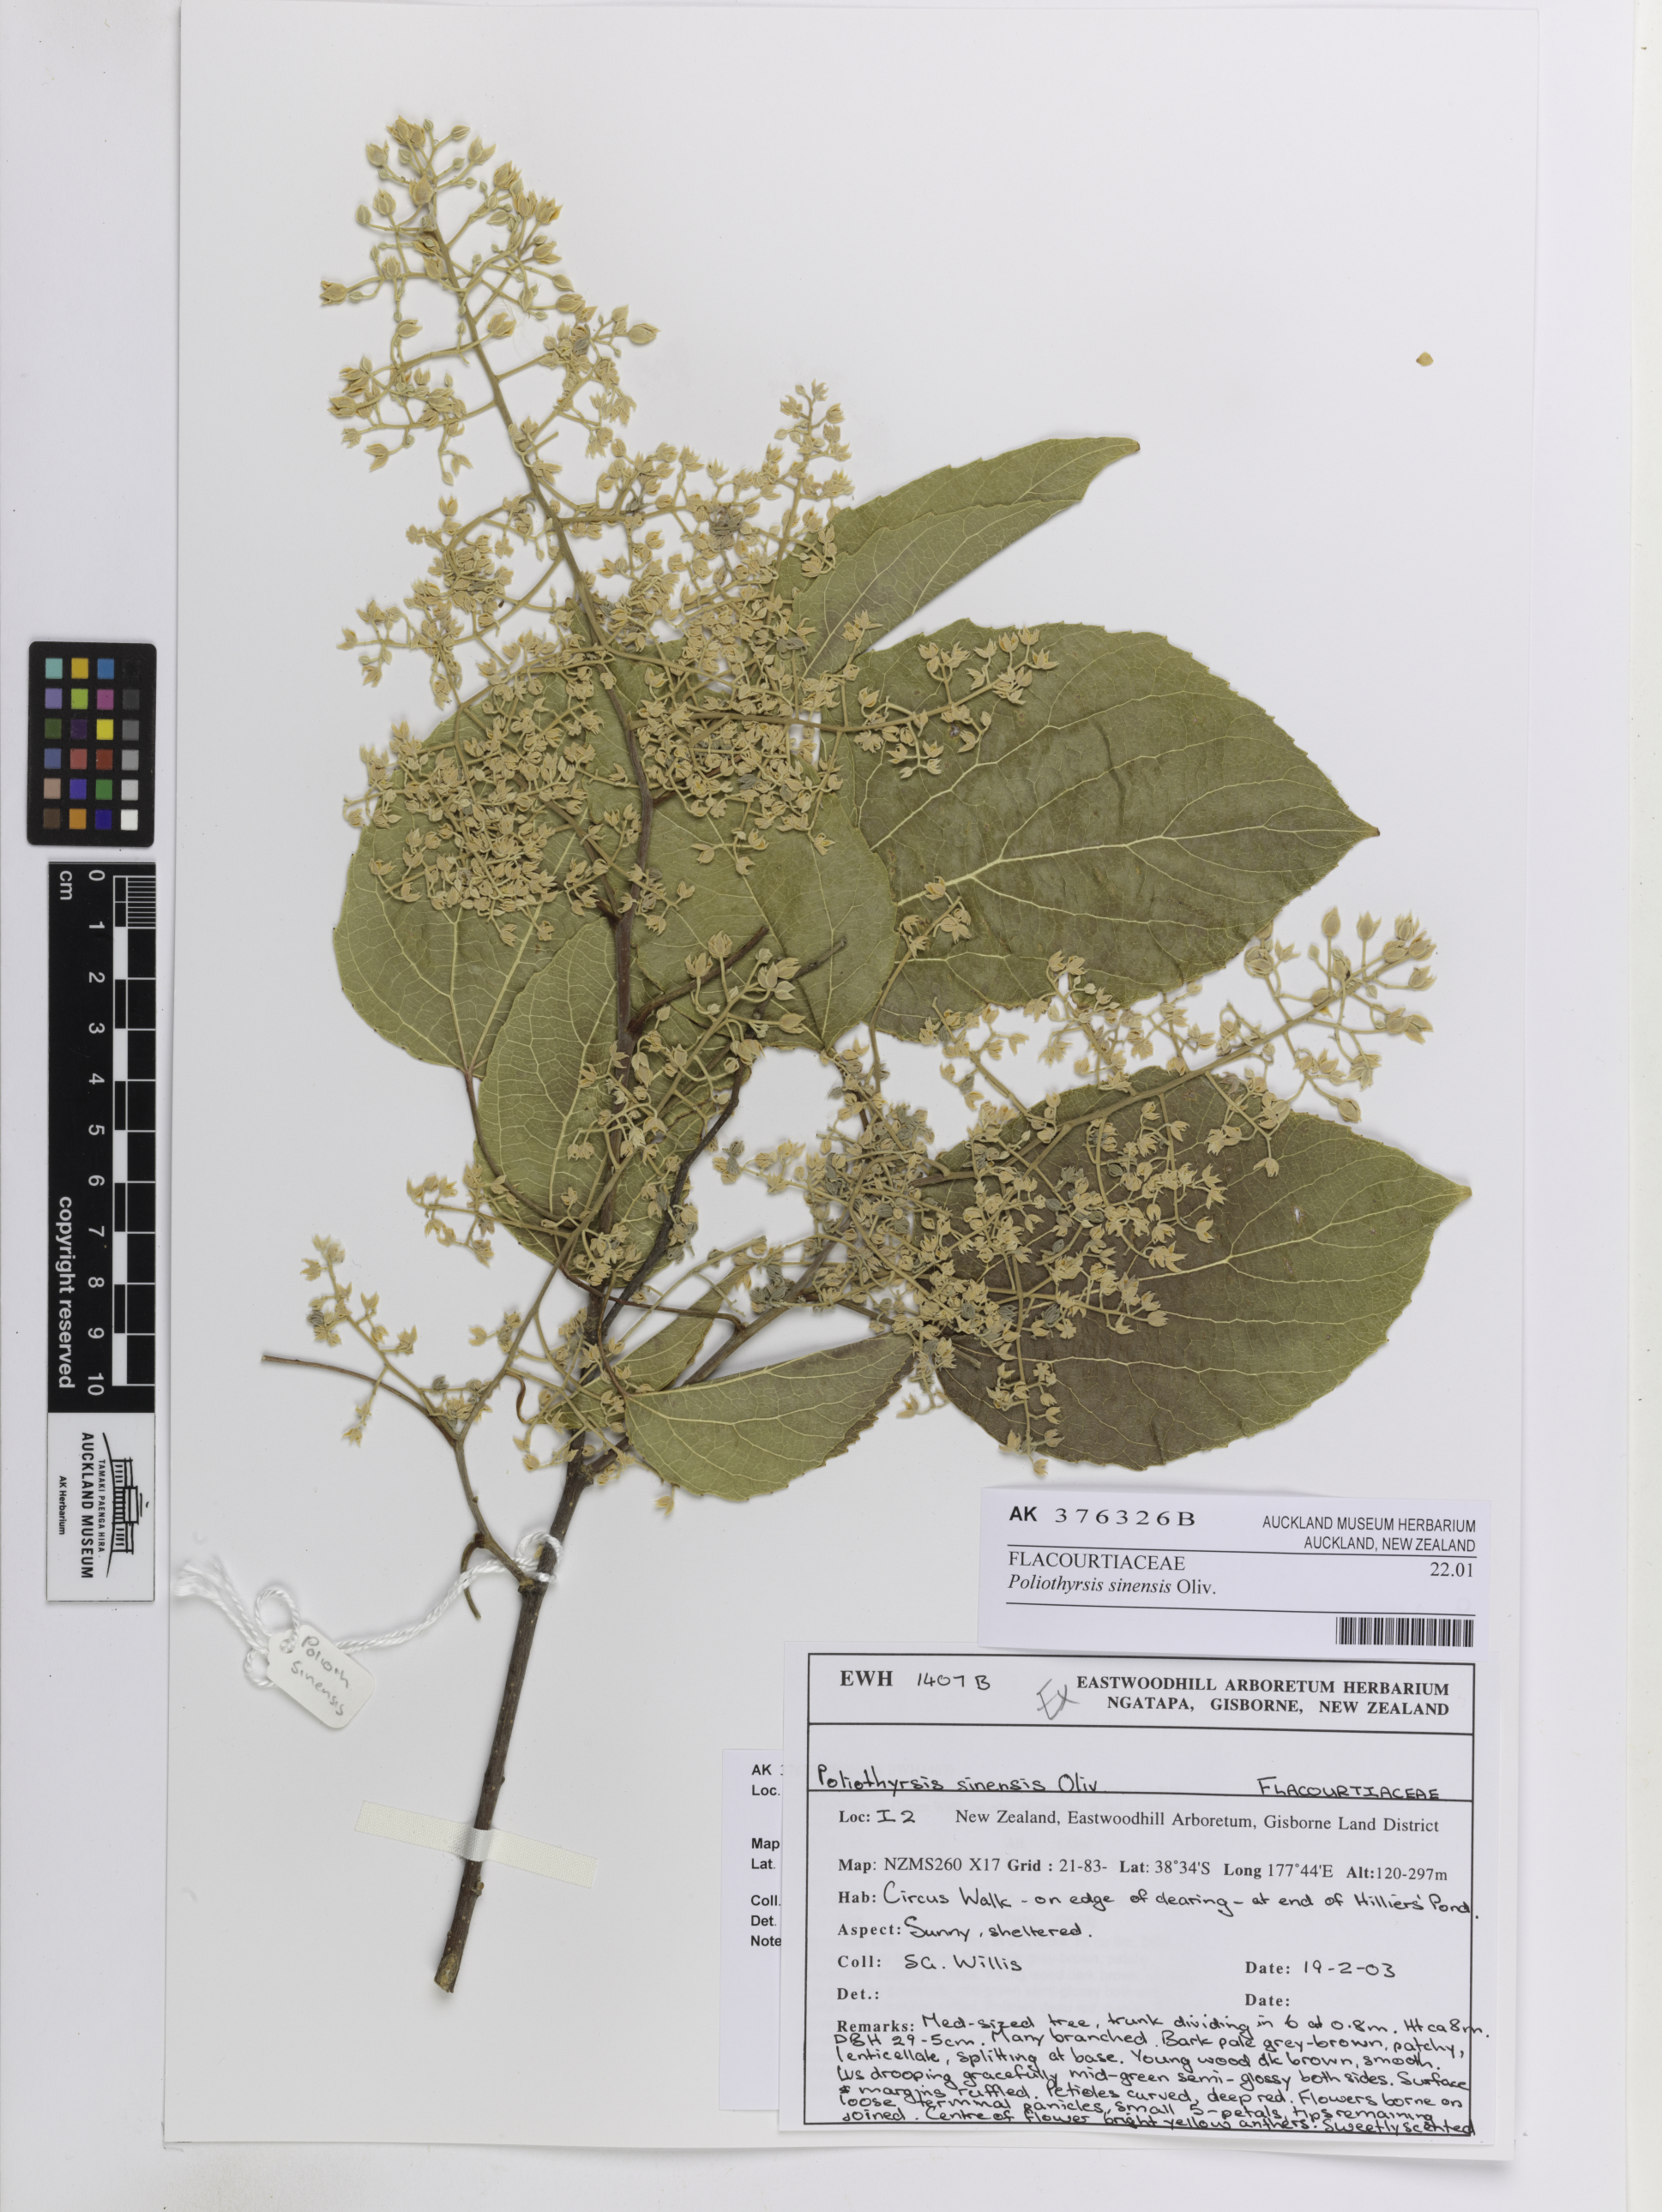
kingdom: Plantae
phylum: Tracheophyta
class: Magnoliopsida
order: Malpighiales
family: Salicaceae
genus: Poliothyrsis
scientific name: Poliothyrsis sinensis
